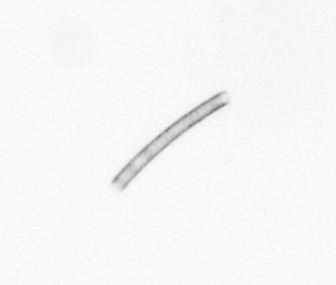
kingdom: Chromista
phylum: Ochrophyta
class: Bacillariophyceae
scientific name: Bacillariophyceae
